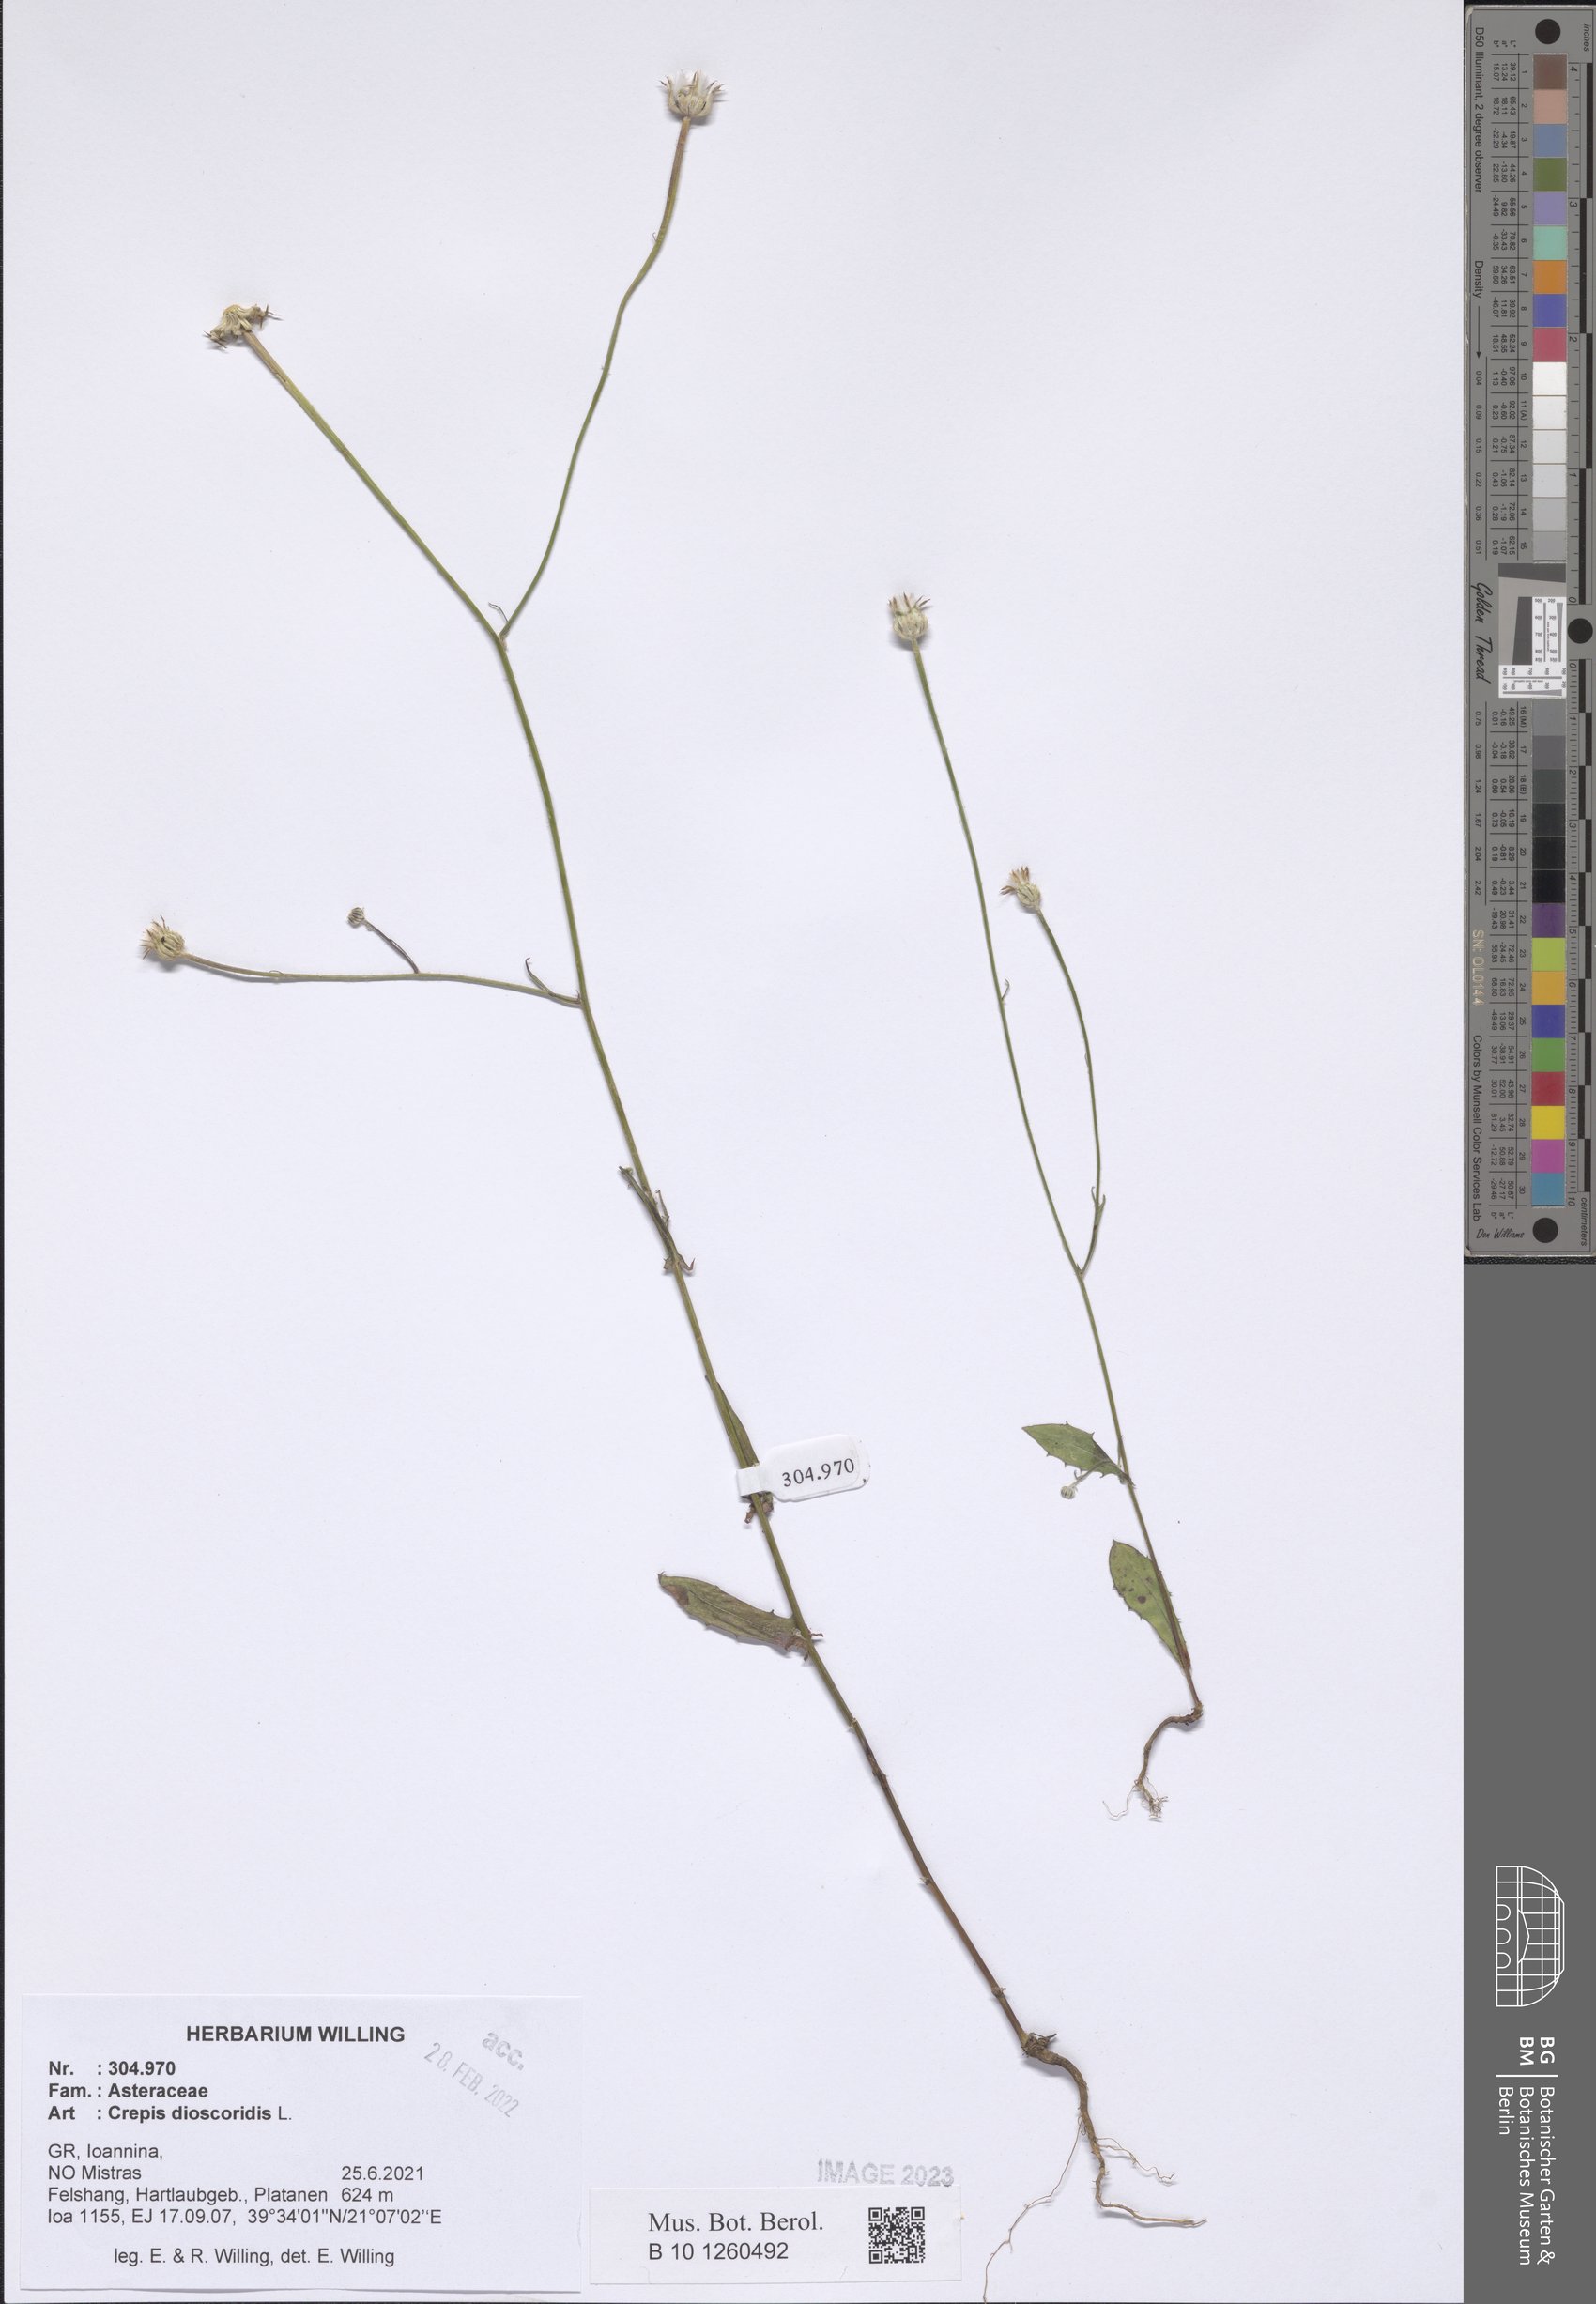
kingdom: Plantae
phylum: Tracheophyta
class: Magnoliopsida
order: Asterales
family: Asteraceae
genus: Crepis
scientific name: Crepis dioscoridis
